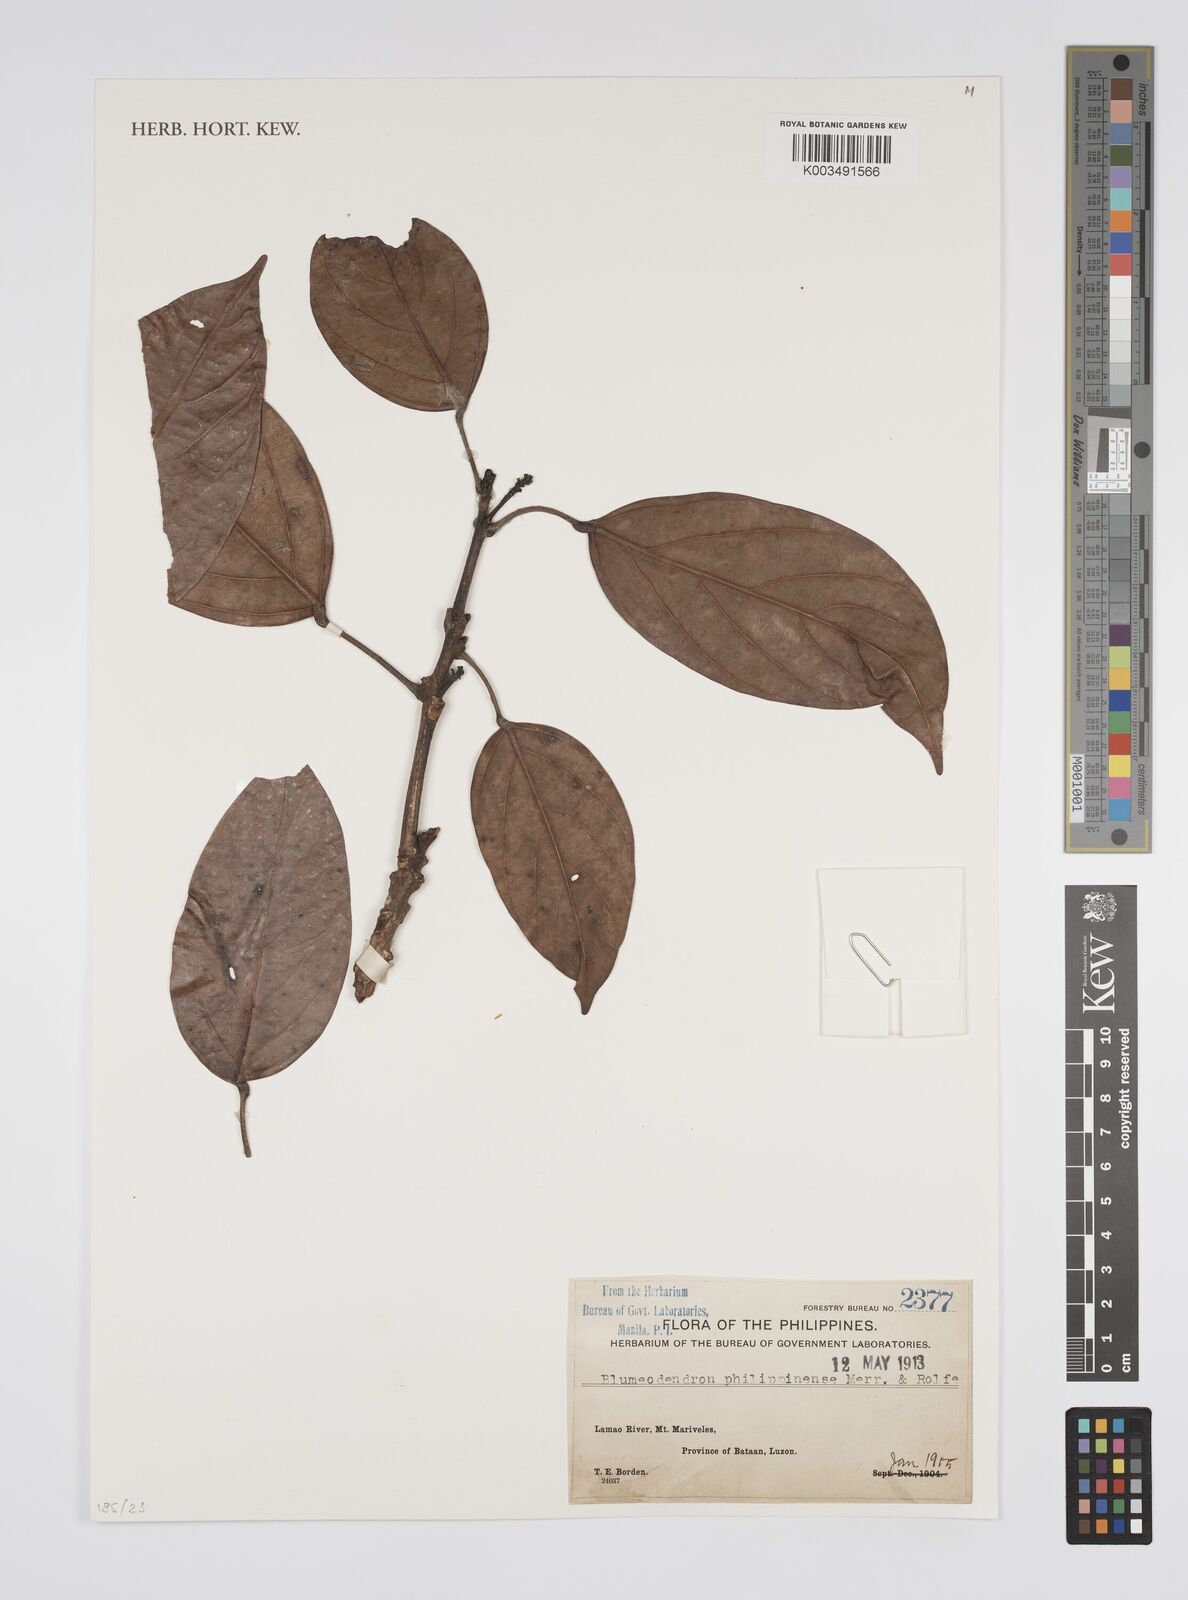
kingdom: Plantae
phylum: Tracheophyta
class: Magnoliopsida
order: Malpighiales
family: Euphorbiaceae
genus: Blumeodendron
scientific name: Blumeodendron philippinense
